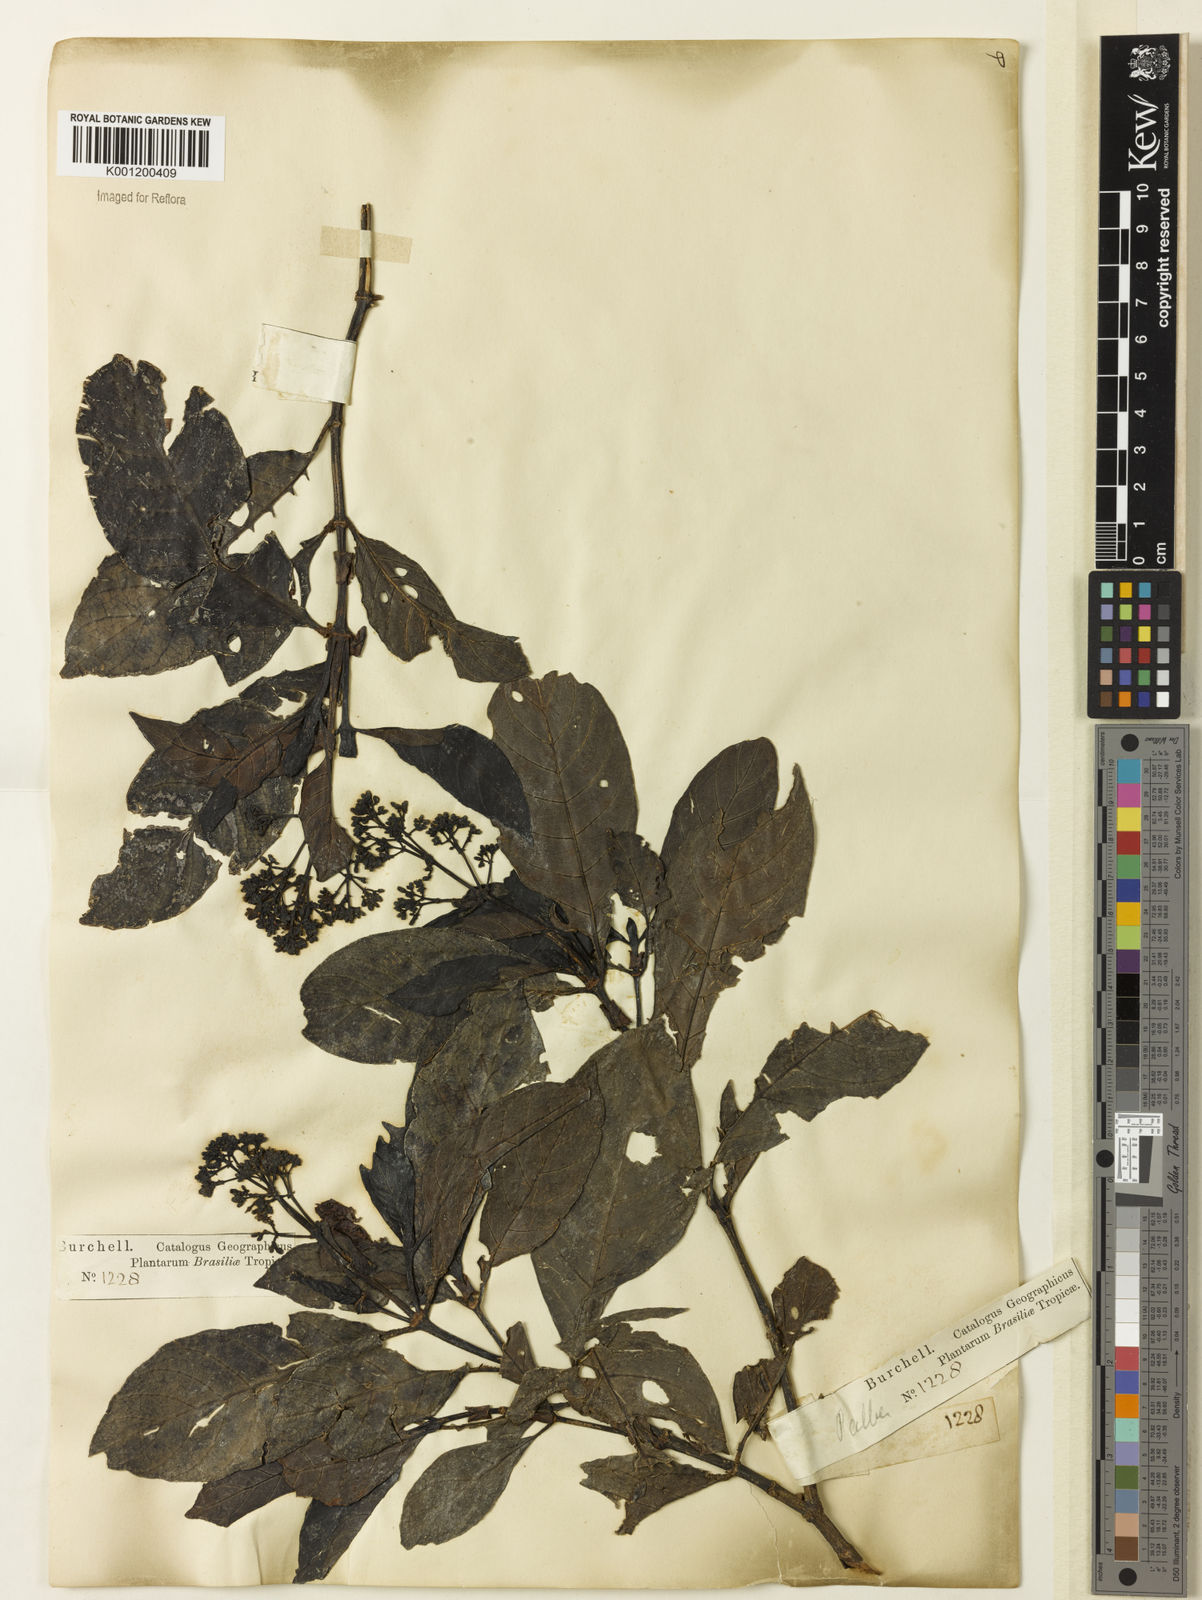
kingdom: Plantae
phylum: Tracheophyta
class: Magnoliopsida
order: Gentianales
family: Rubiaceae
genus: Psychotria
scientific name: Psychotria carthagenensis
